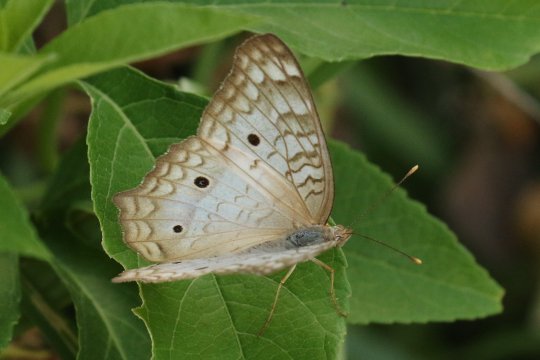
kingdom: Animalia
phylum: Arthropoda
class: Insecta
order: Lepidoptera
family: Nymphalidae
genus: Anartia
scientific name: Anartia jatrophae
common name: White Peacock
